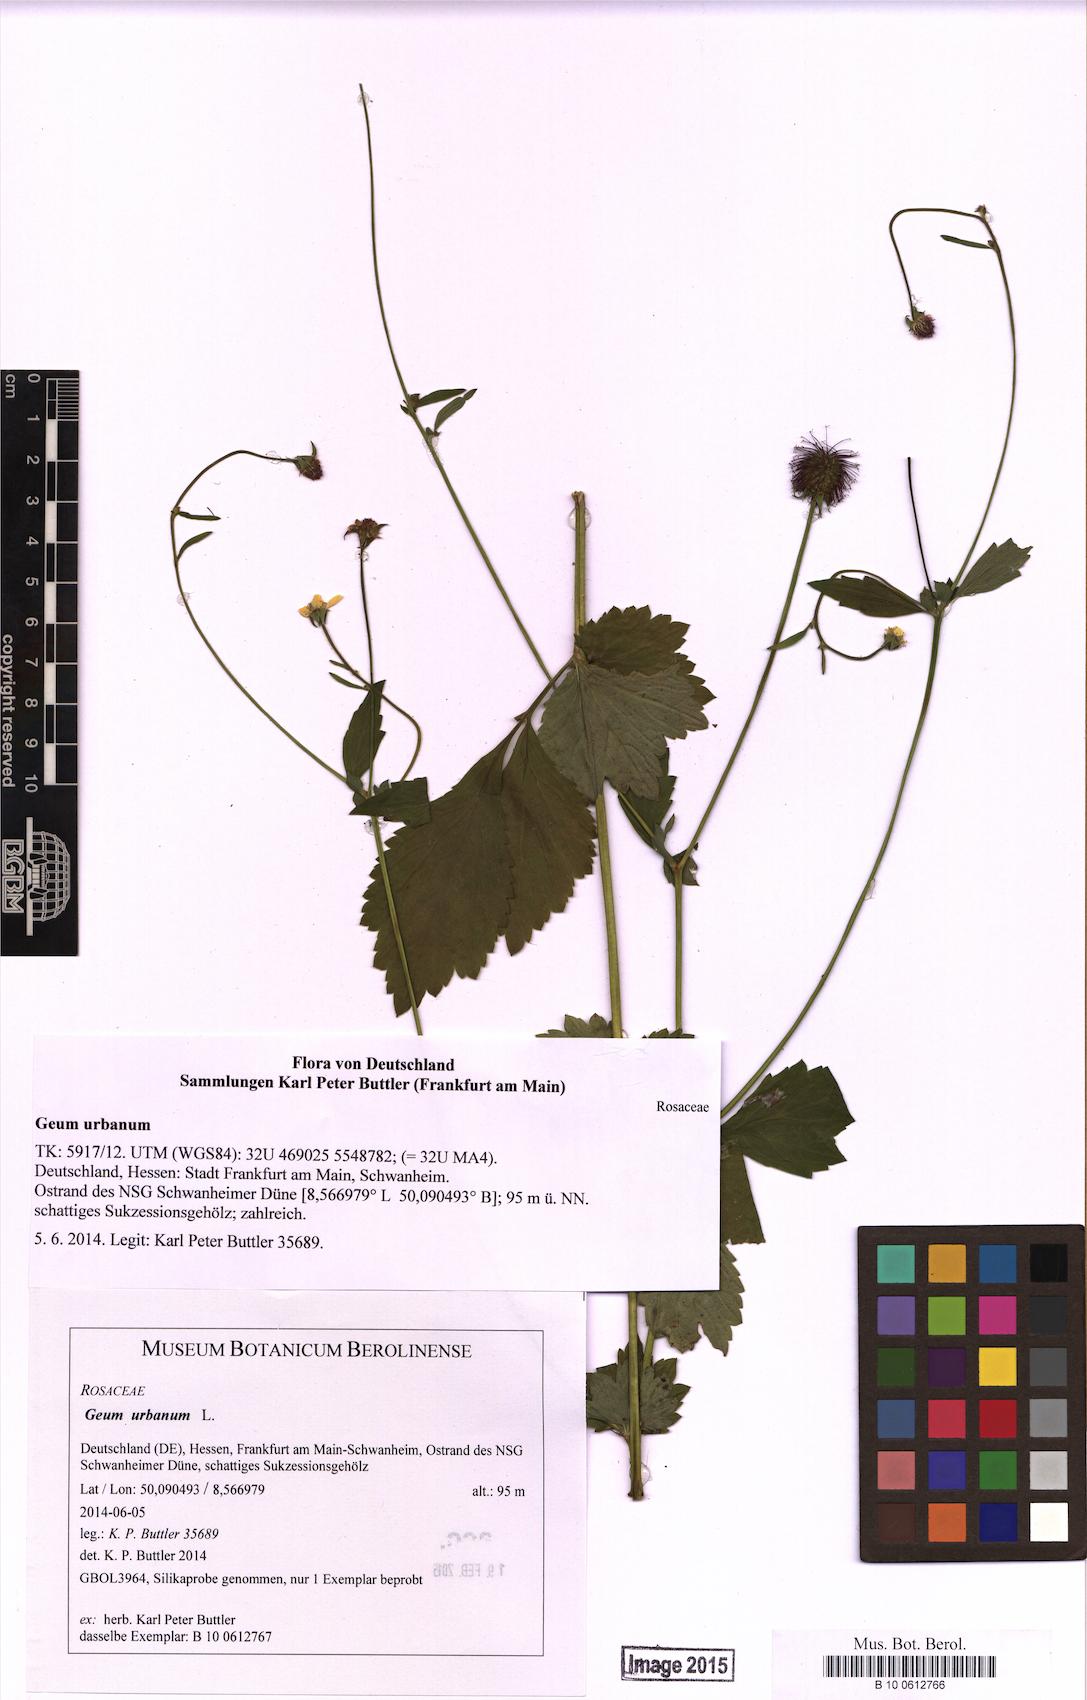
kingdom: Plantae
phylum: Tracheophyta
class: Magnoliopsida
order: Rosales
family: Rosaceae
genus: Geum
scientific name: Geum urbanum
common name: Wood avens
